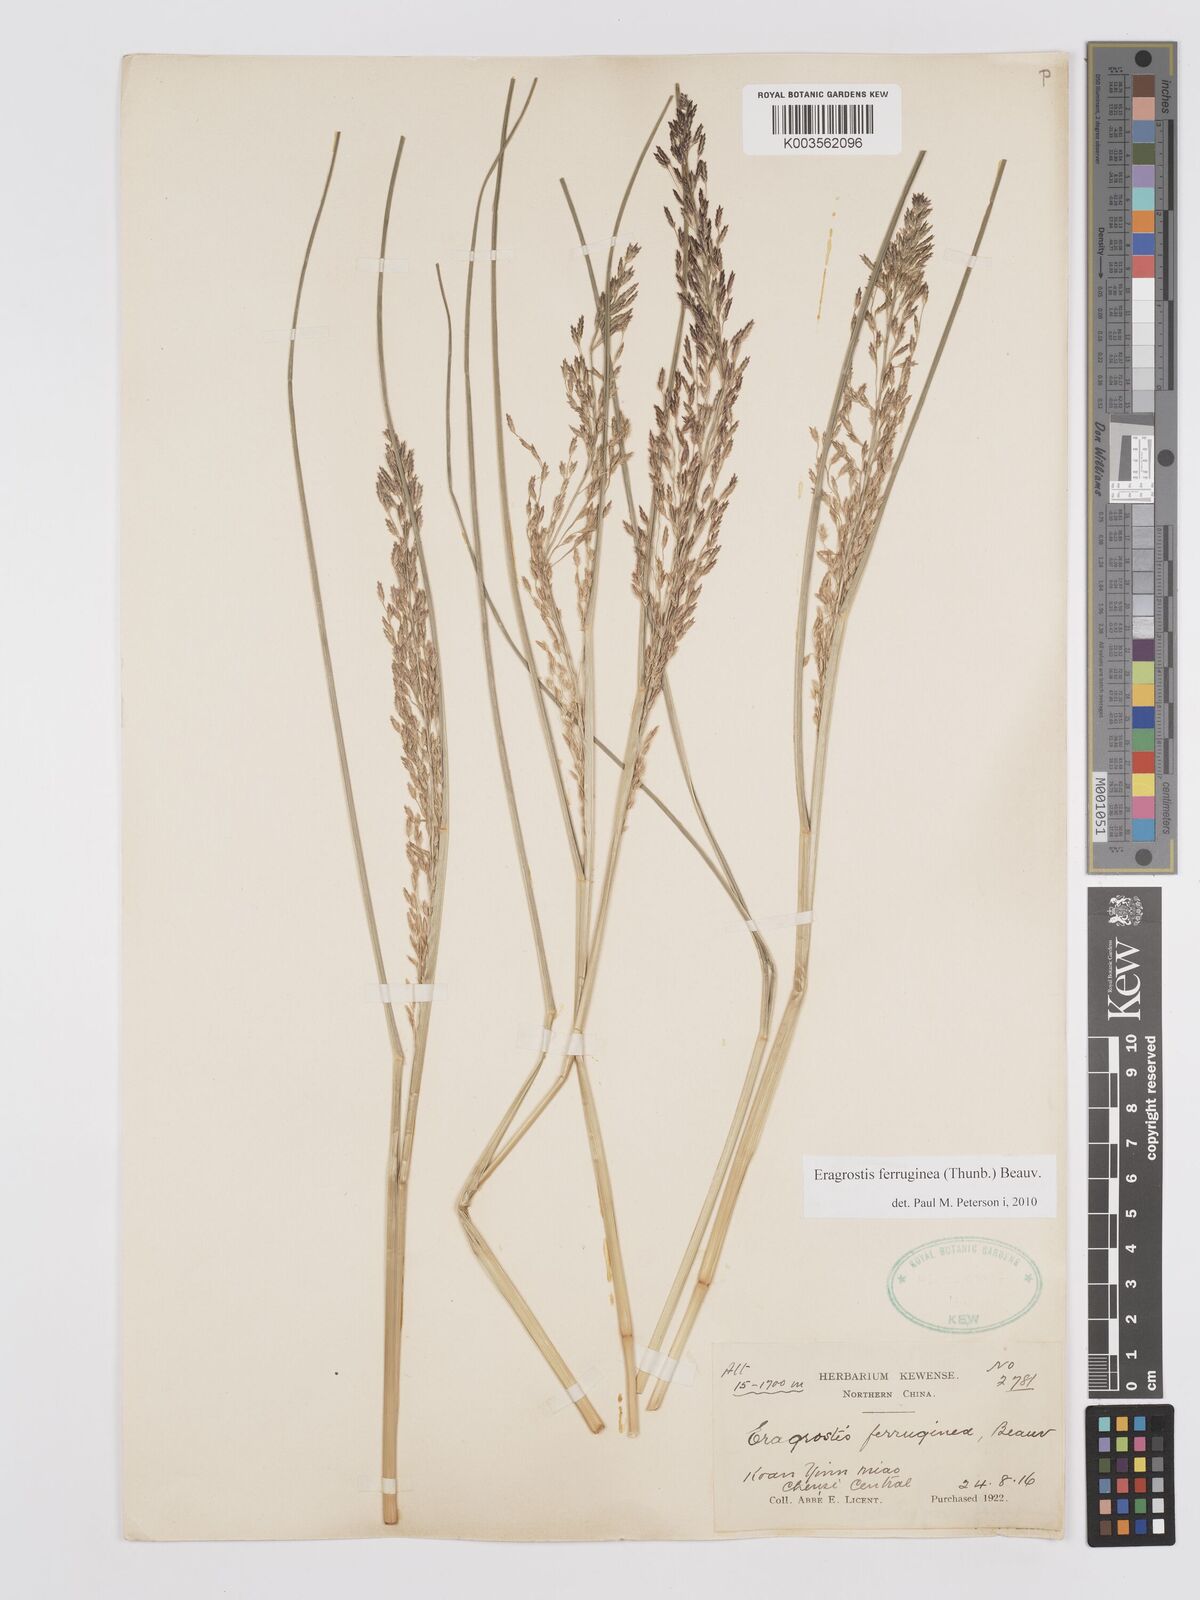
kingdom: Plantae
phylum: Tracheophyta
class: Liliopsida
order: Poales
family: Poaceae
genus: Eragrostis
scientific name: Eragrostis ferruginea
